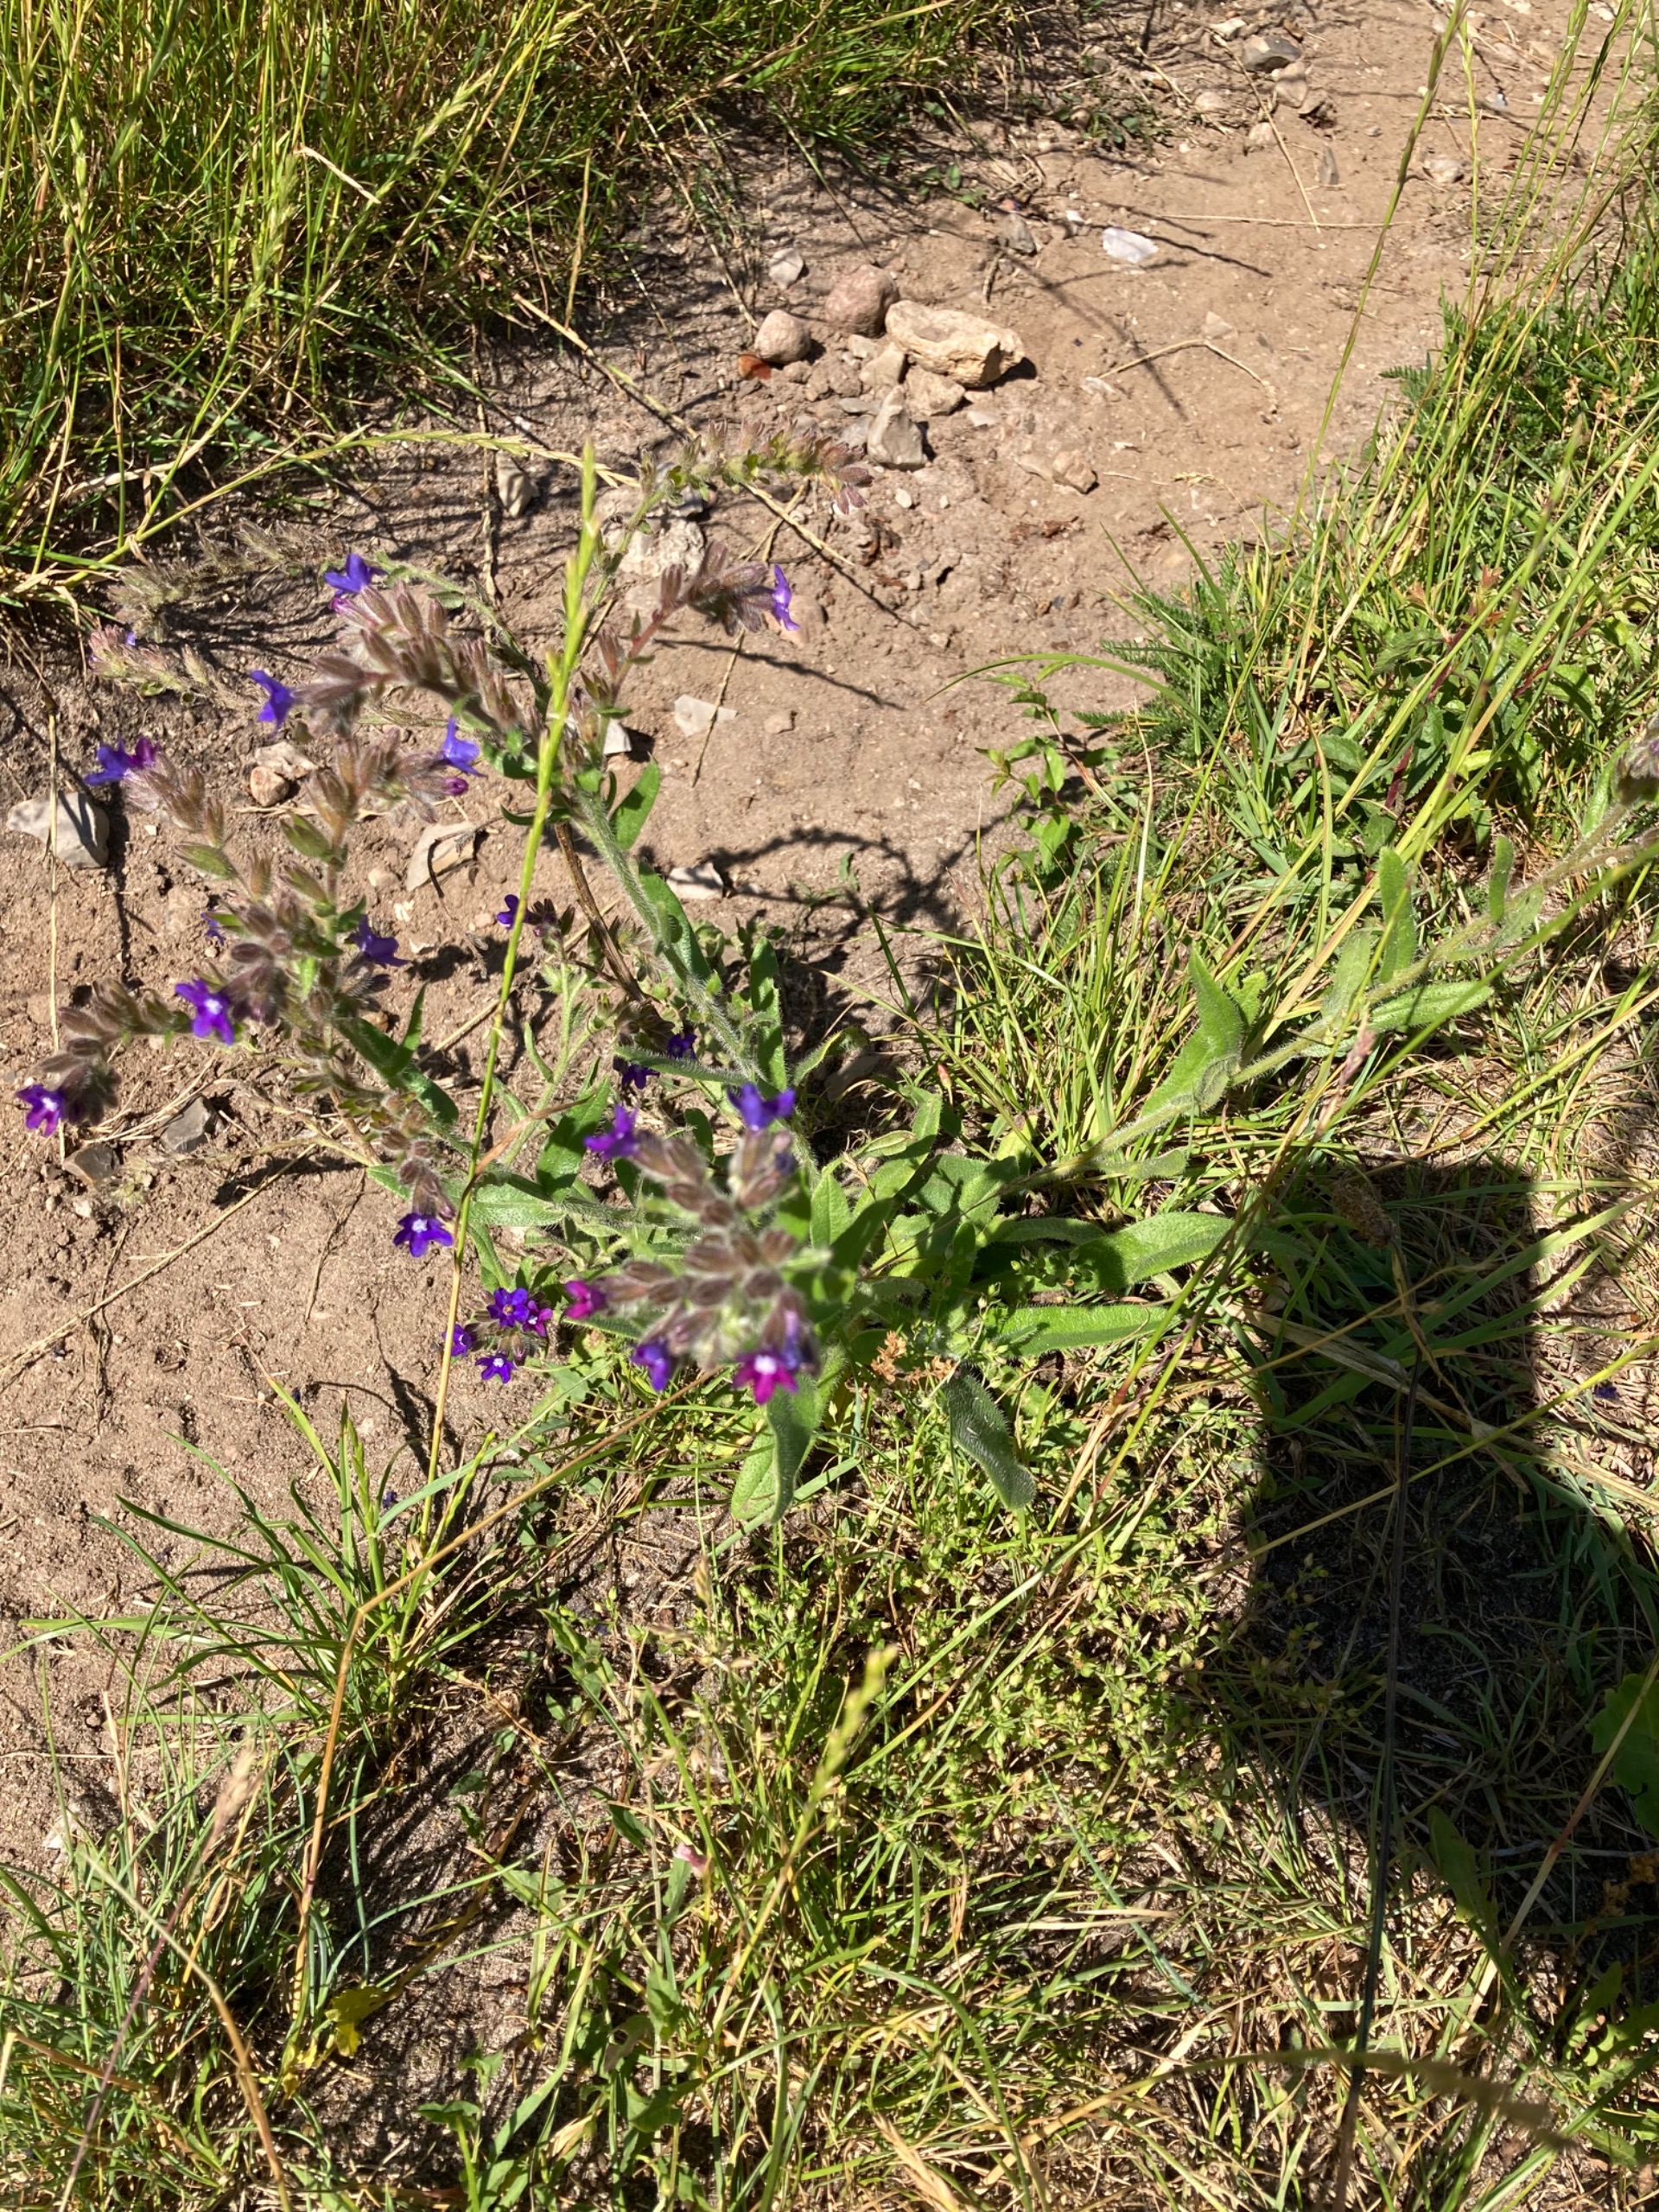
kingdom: Plantae
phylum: Tracheophyta
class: Magnoliopsida
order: Boraginales
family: Boraginaceae
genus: Anchusa
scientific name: Anchusa officinalis
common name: Læge-oksetunge
